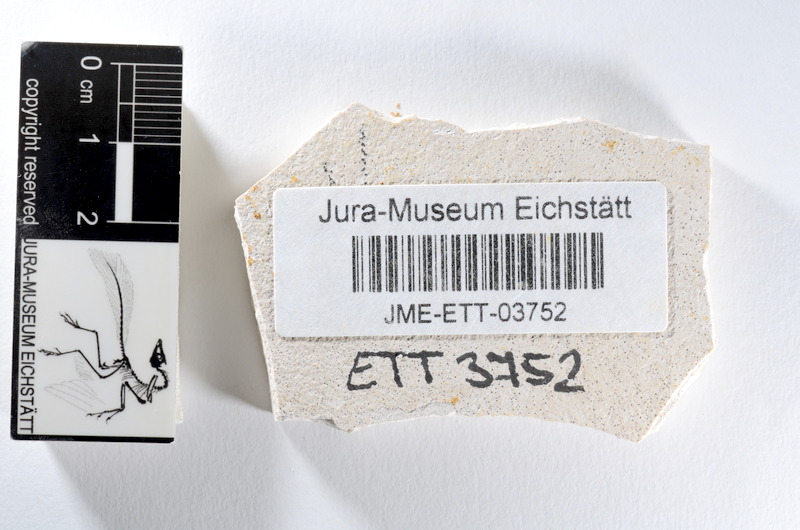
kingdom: Animalia
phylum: Chordata
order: Salmoniformes
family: Orthogonikleithridae
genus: Orthogonikleithrus
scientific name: Orthogonikleithrus hoelli
